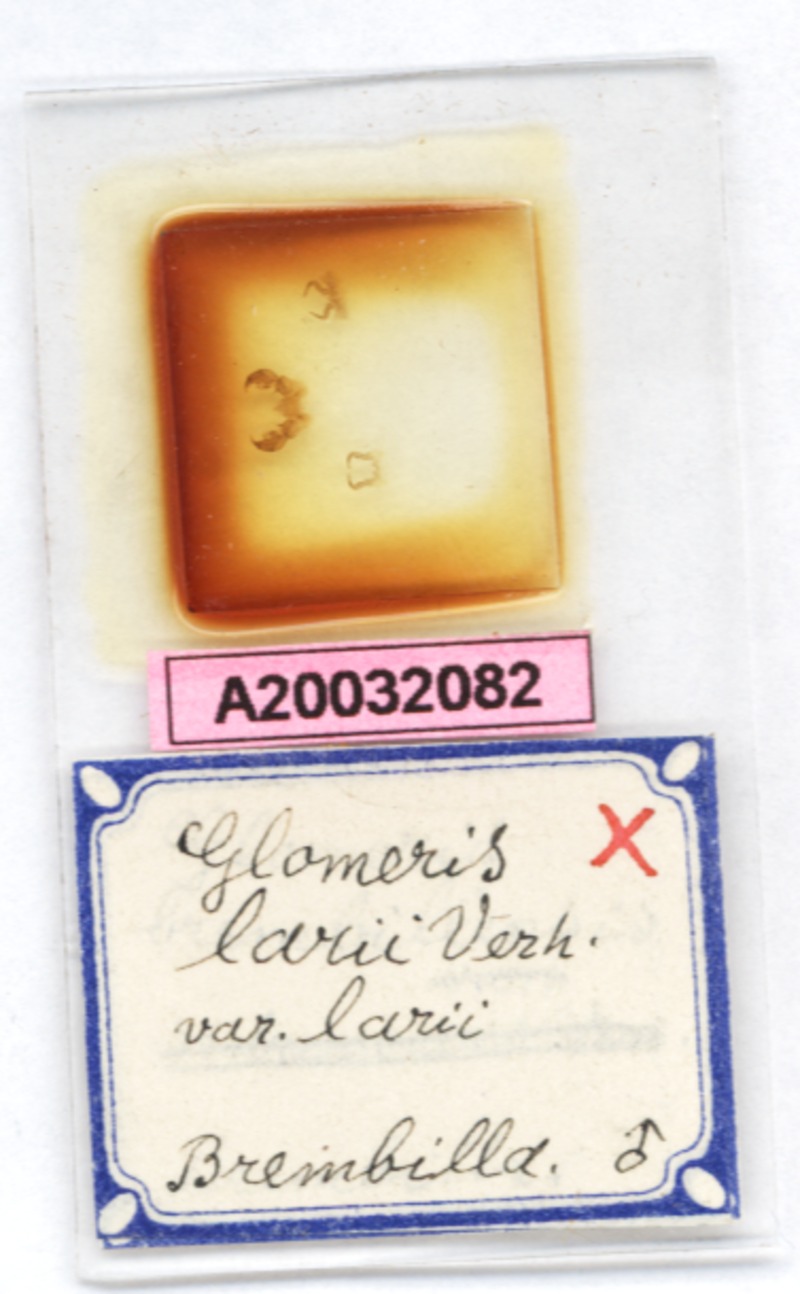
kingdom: Animalia
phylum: Arthropoda
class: Diplopoda
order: Glomerida
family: Glomeridae
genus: Glomeris
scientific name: Glomeris klugii
